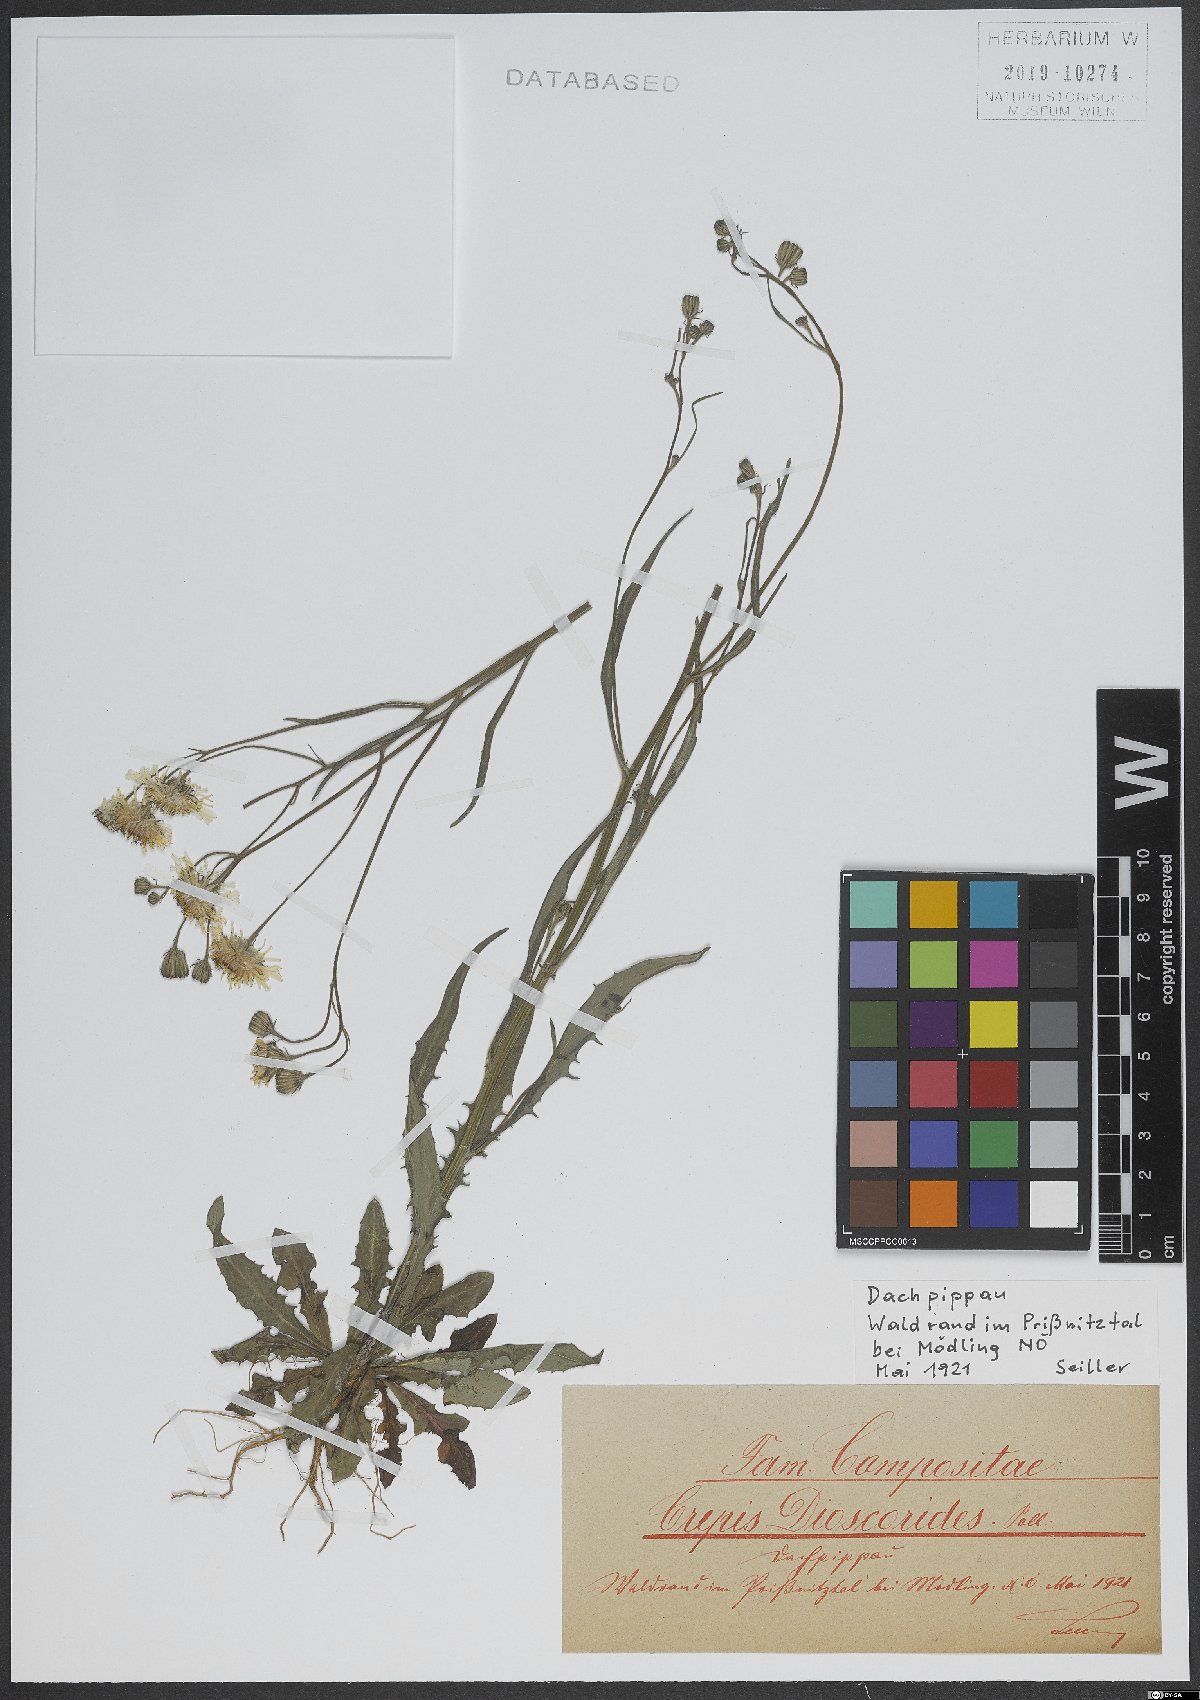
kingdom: Plantae
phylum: Tracheophyta
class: Magnoliopsida
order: Asterales
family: Asteraceae
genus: Crepis
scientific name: Crepis dioscoridis
